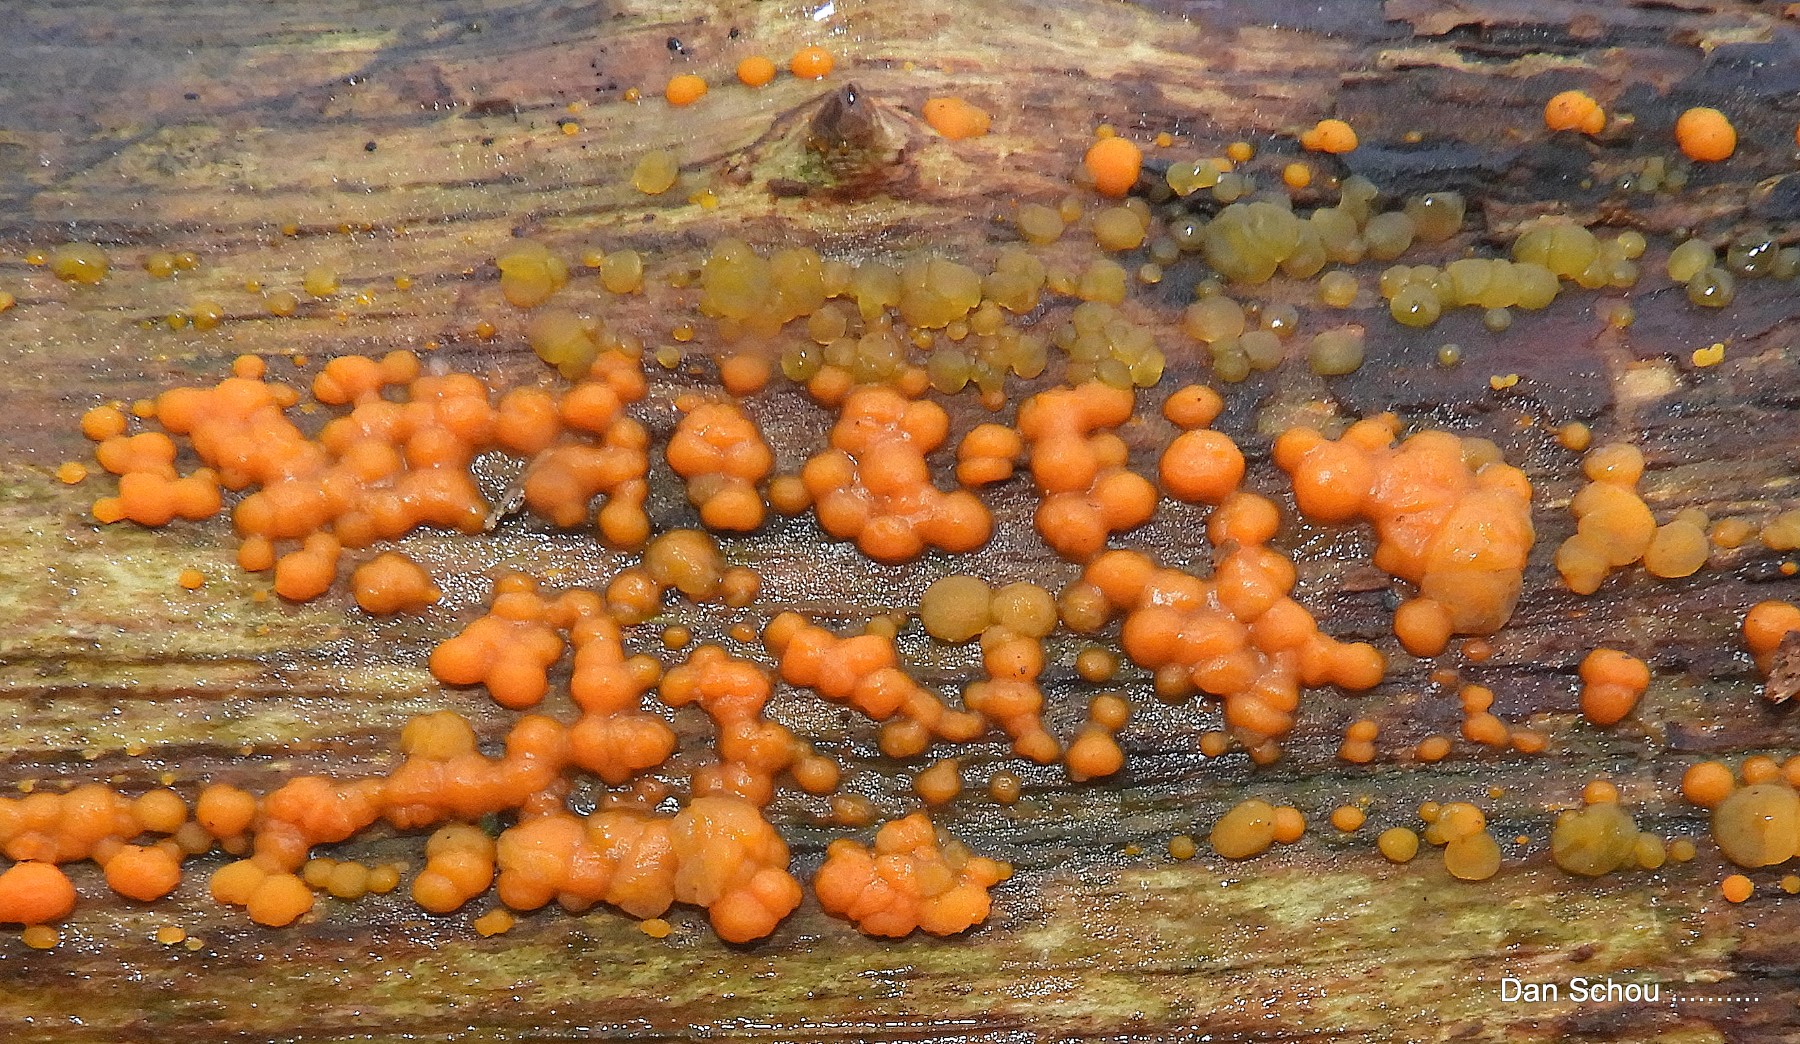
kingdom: Fungi
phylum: Basidiomycota
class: Dacrymycetes
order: Dacrymycetales
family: Dacrymycetaceae
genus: Dacrymyces
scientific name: Dacrymyces stillatus
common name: almindelig tåresvamp
